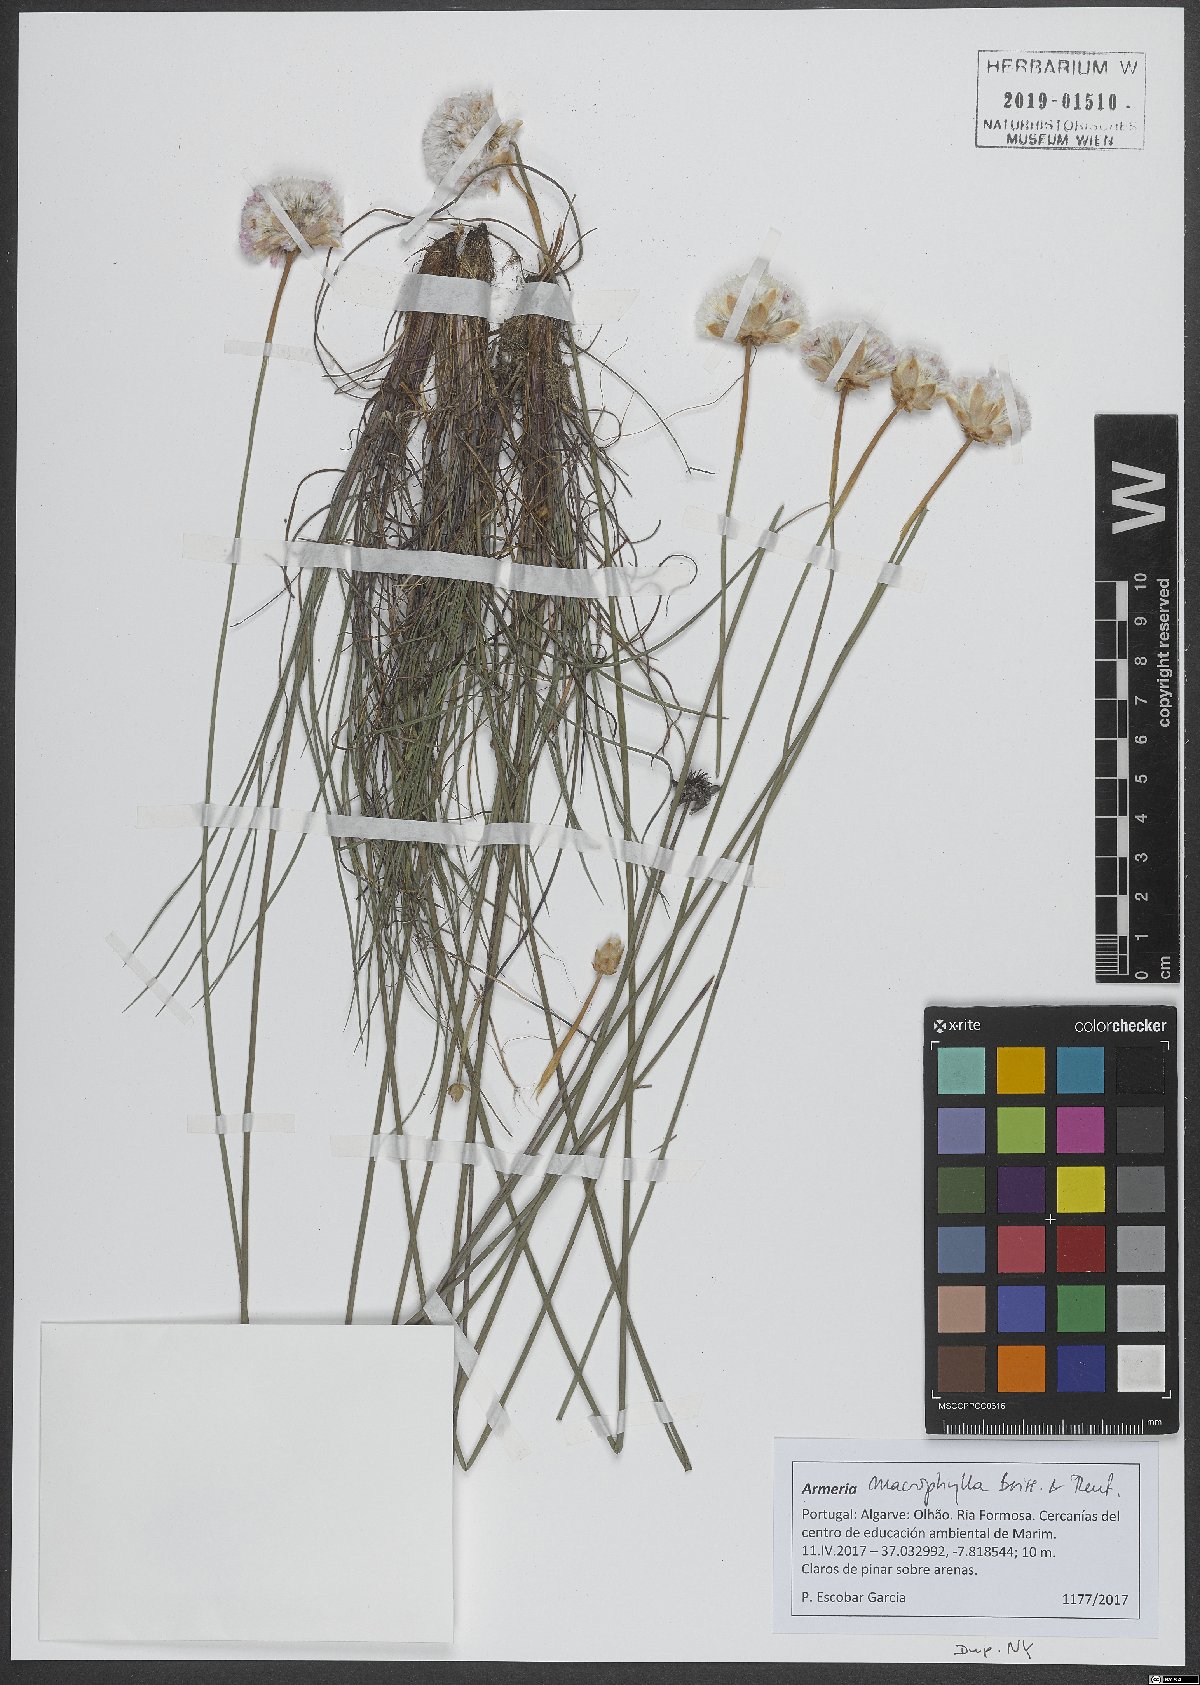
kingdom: Plantae
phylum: Tracheophyta
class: Magnoliopsida
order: Caryophyllales
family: Plumbaginaceae
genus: Armeria
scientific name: Armeria macrophylla
